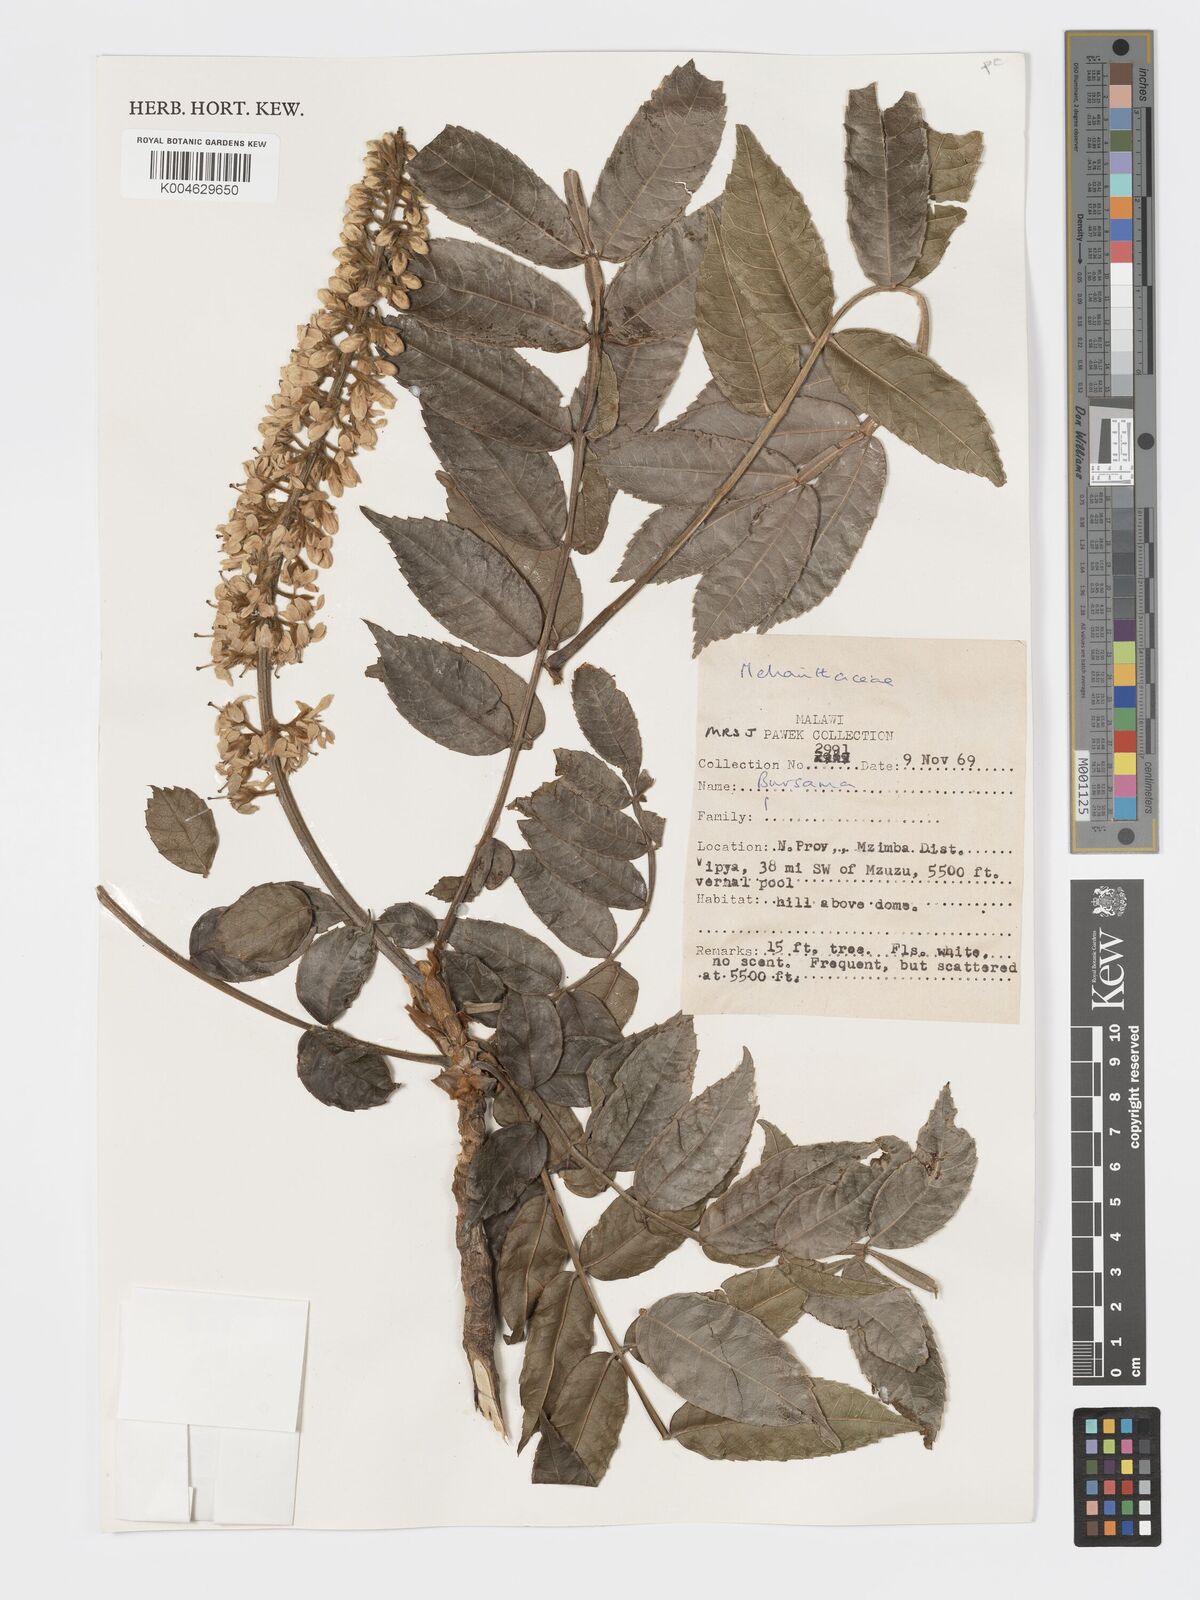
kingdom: Plantae
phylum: Tracheophyta
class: Magnoliopsida
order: Geraniales
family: Francoaceae
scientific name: Francoaceae
